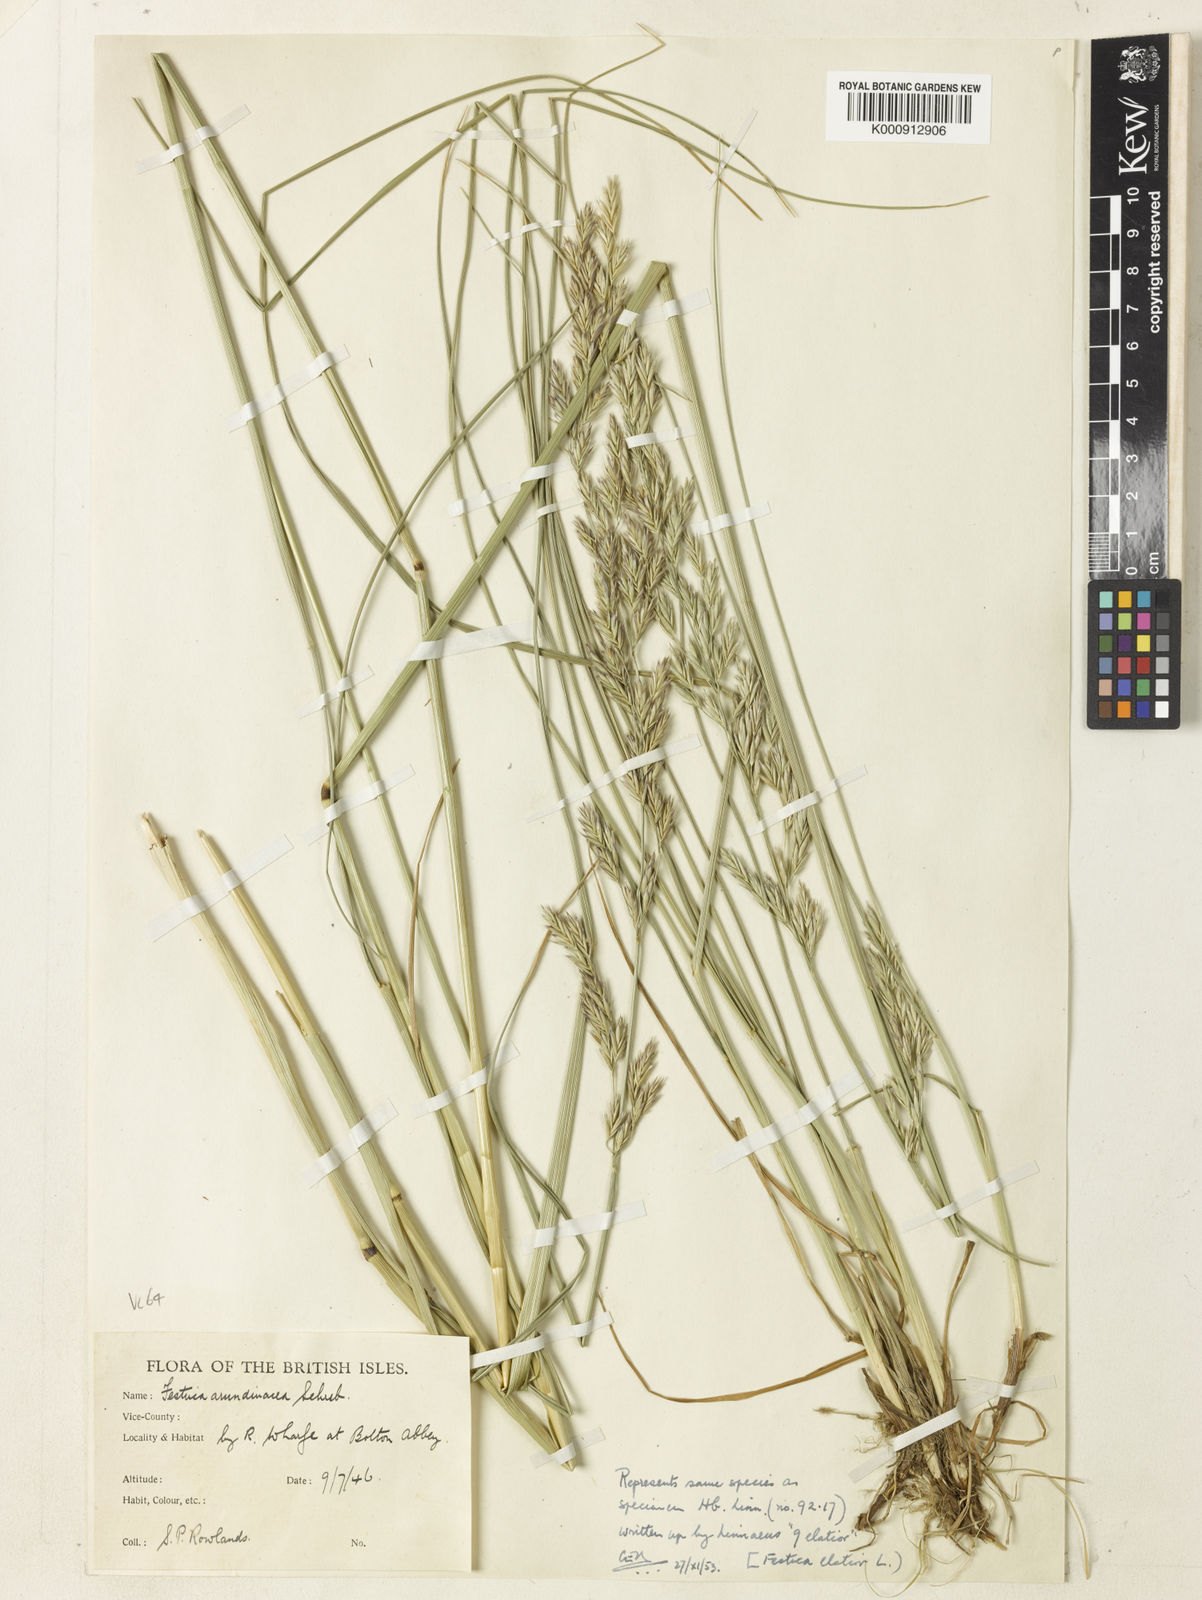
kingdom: Plantae
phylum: Tracheophyta
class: Liliopsida
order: Poales
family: Poaceae
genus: Lolium
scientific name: Lolium arundinaceum
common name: Reed fescue
